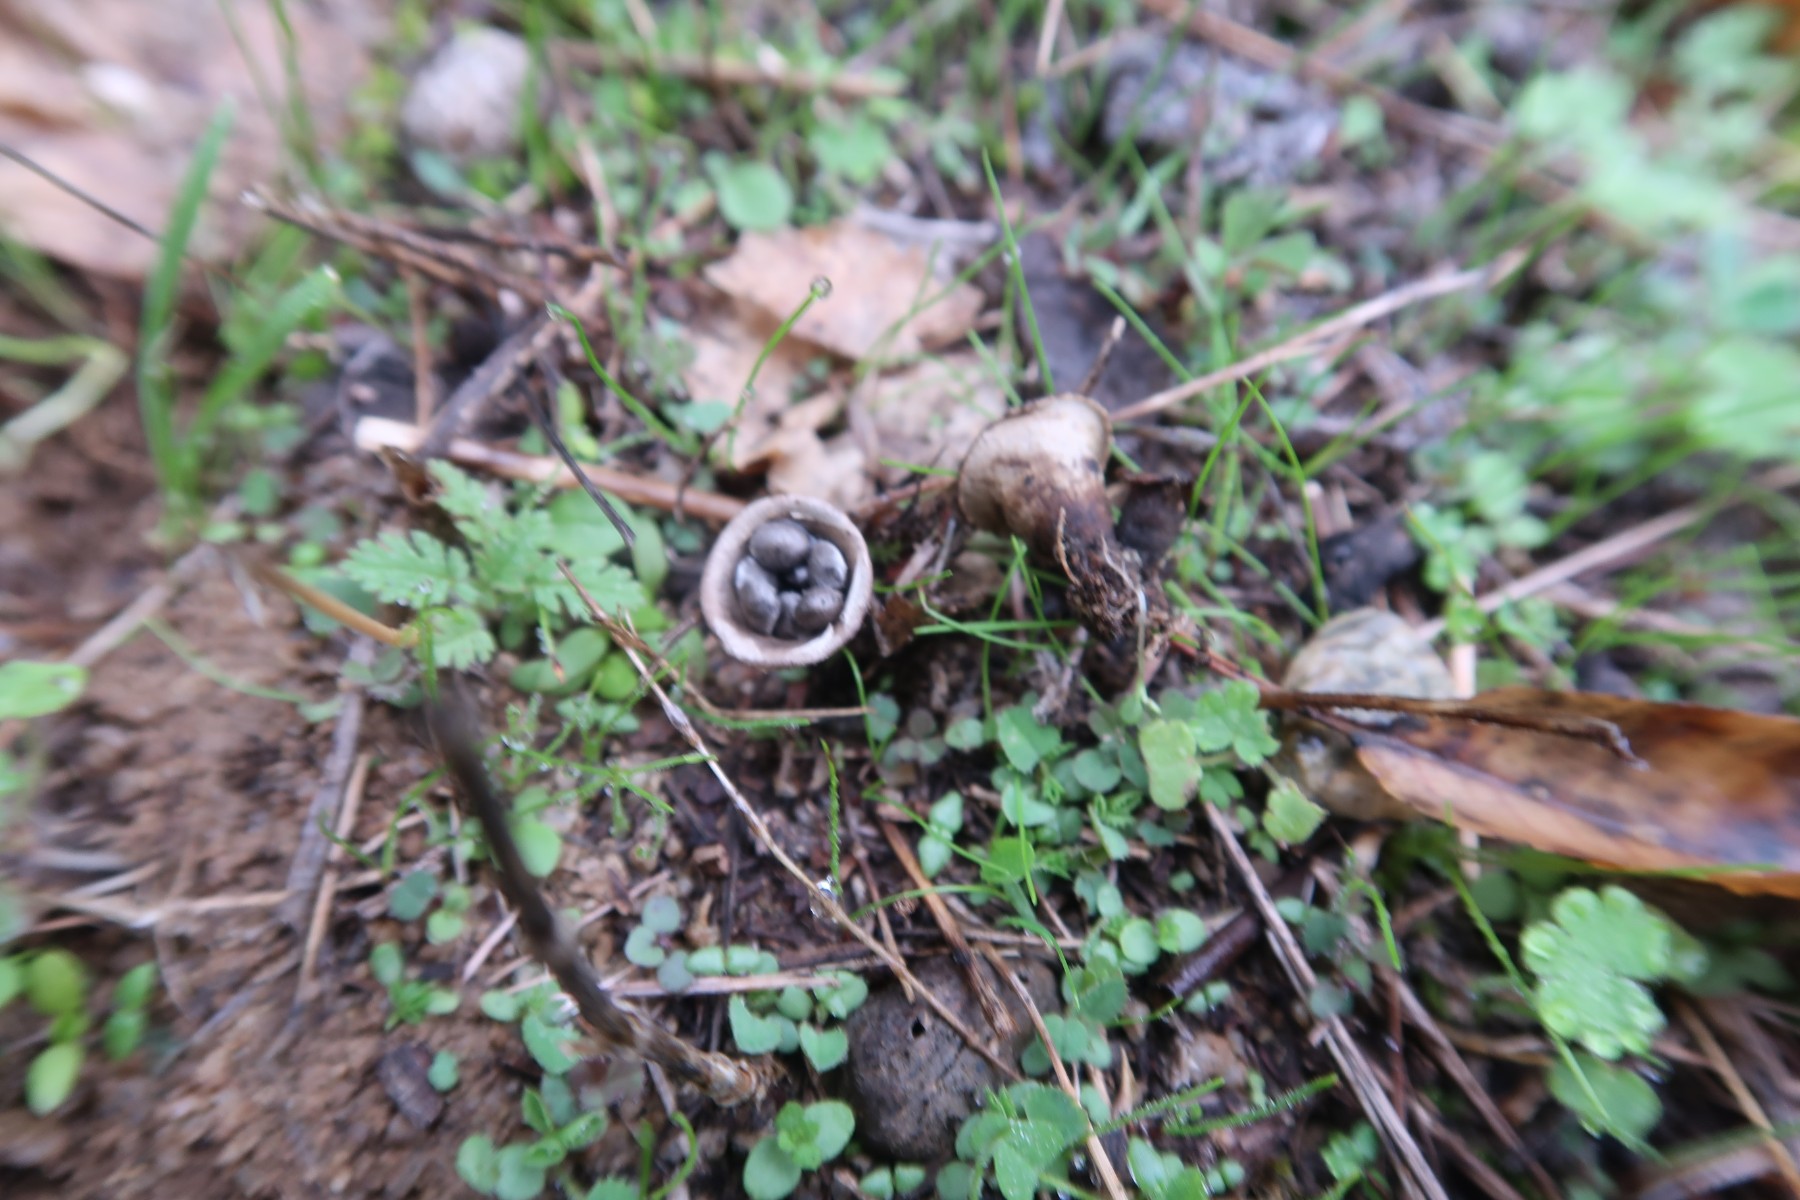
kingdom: Fungi
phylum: Basidiomycota
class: Agaricomycetes
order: Agaricales
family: Agaricaceae
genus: Cyathus
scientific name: Cyathus olla
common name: klokke-redesvamp
